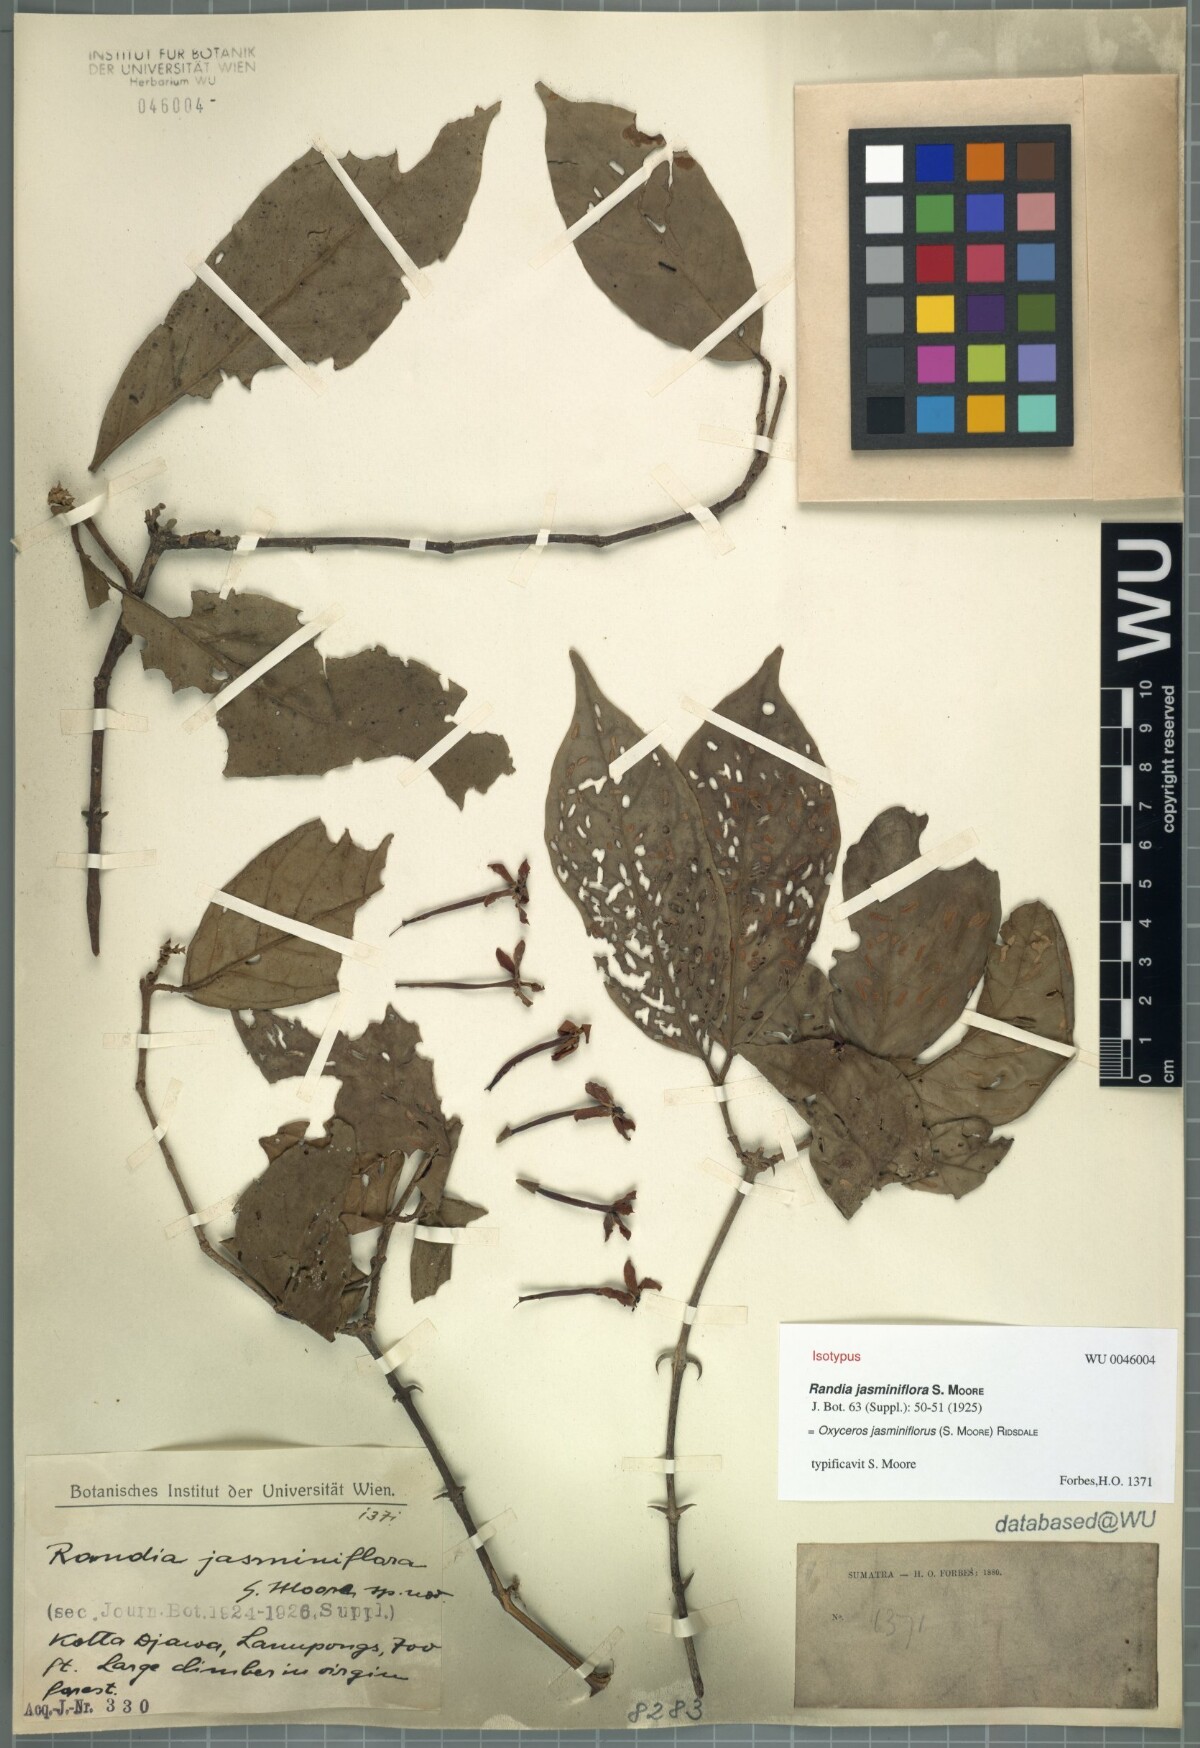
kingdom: Plantae
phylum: Tracheophyta
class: Magnoliopsida
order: Gentianales
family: Rubiaceae
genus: Oxyceros
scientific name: Oxyceros jasminiflorus
